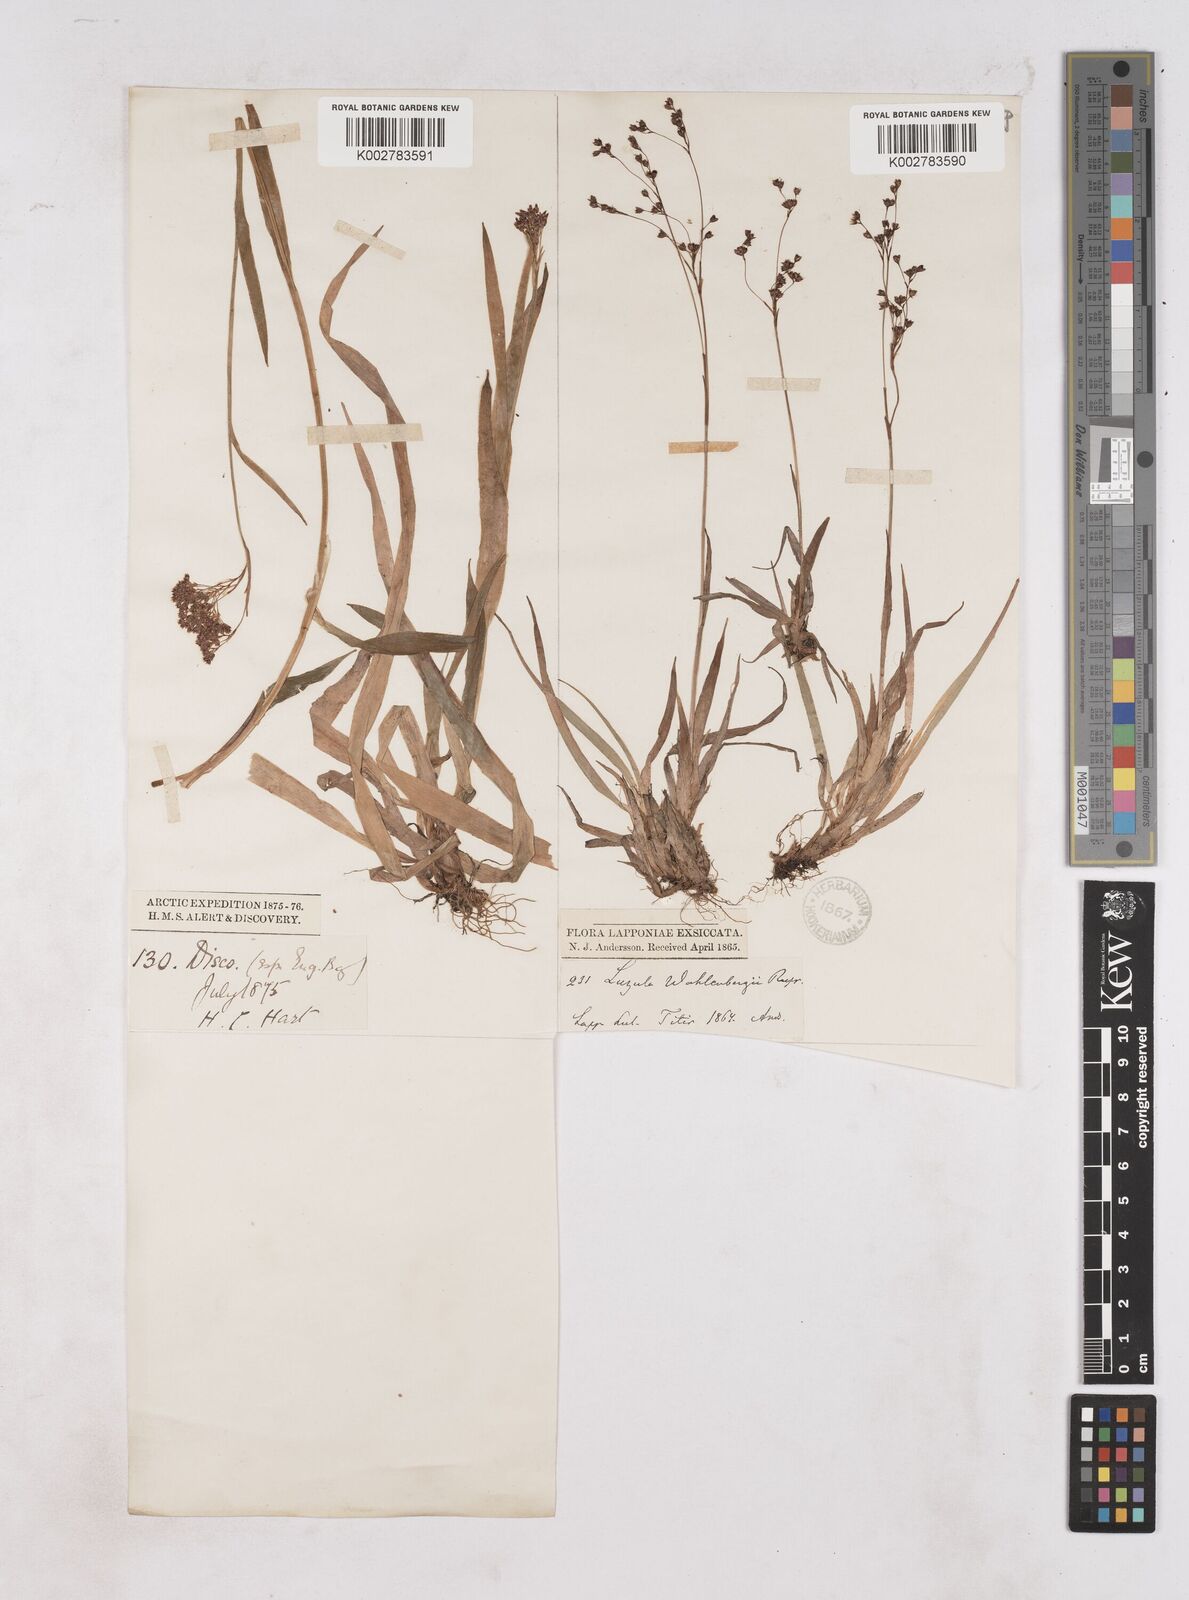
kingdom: Plantae
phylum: Tracheophyta
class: Liliopsida
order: Poales
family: Juncaceae
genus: Luzula
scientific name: Luzula
